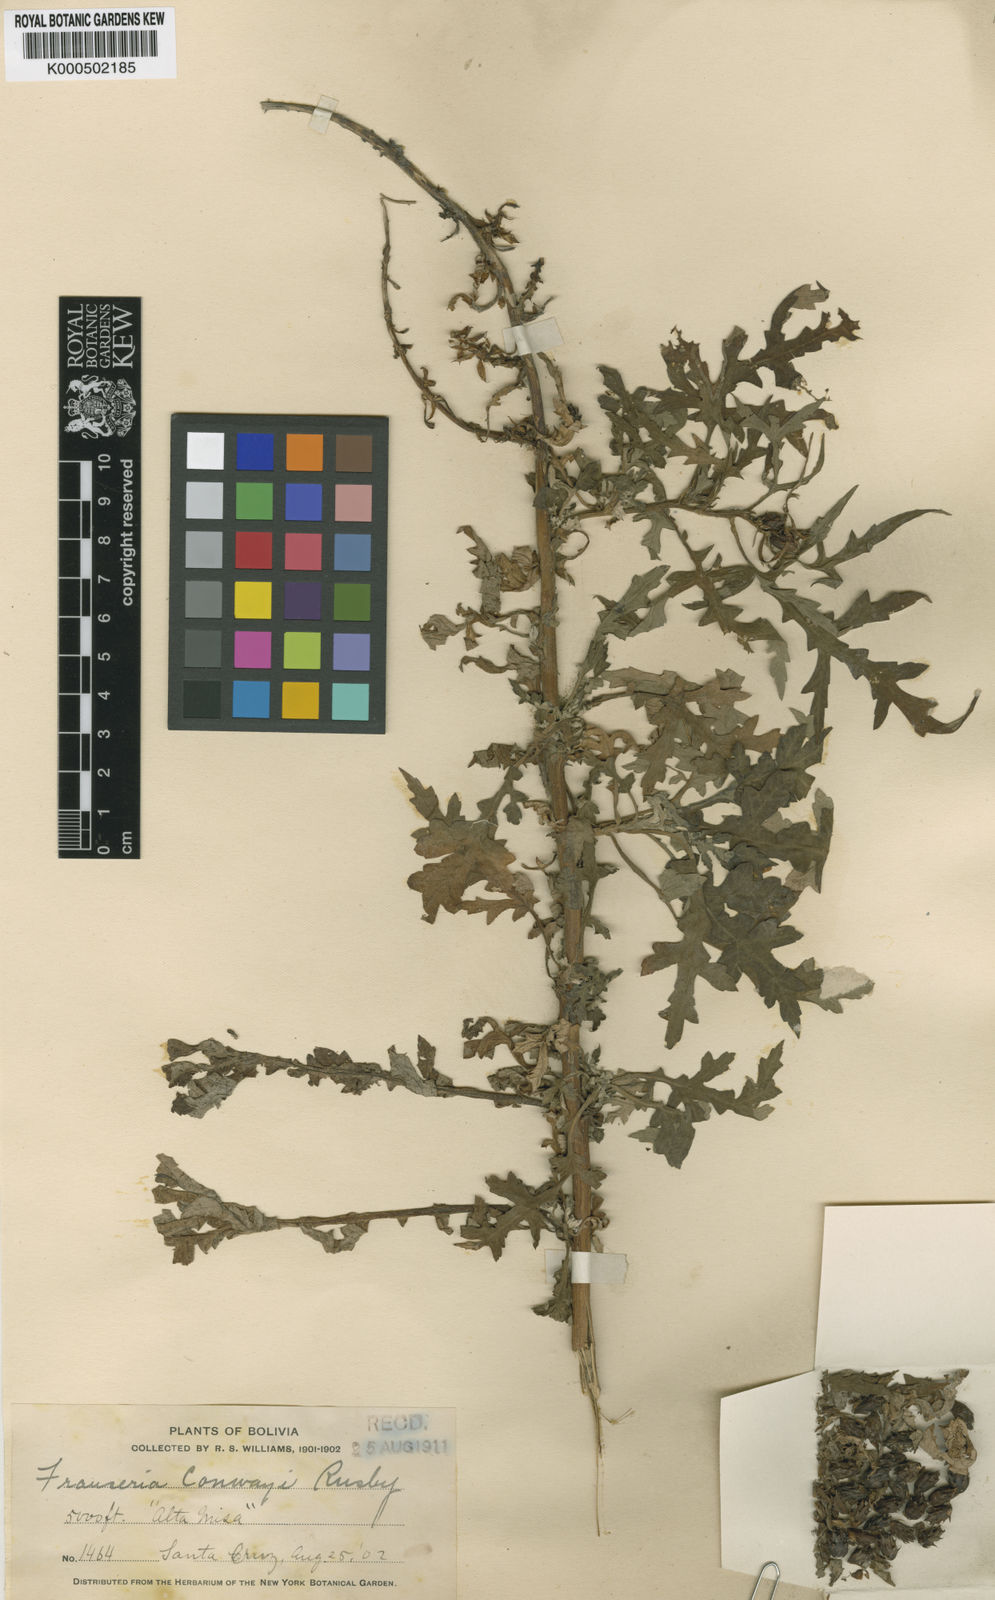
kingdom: Plantae
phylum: Tracheophyta
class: Magnoliopsida
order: Asterales
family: Asteraceae
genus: Ambrosia
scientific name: Ambrosia
